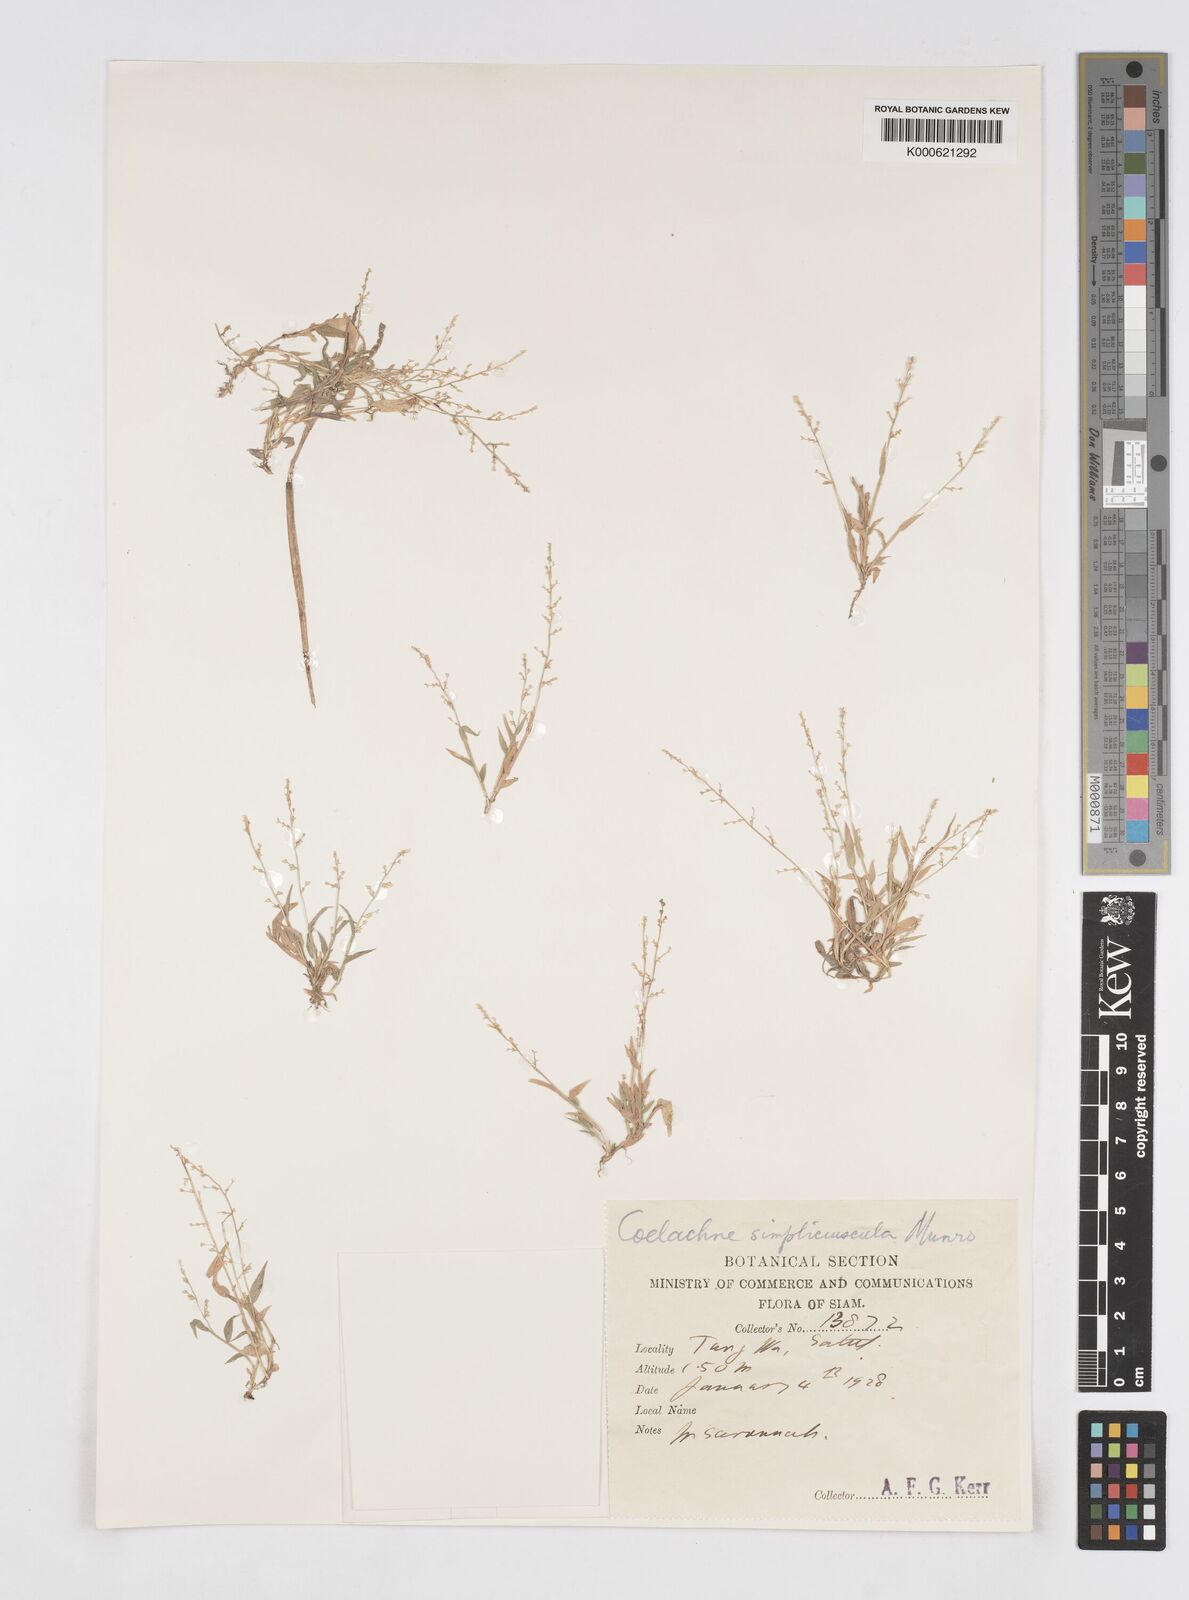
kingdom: Plantae
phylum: Tracheophyta
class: Liliopsida
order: Poales
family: Poaceae
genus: Coelachne
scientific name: Coelachne simpliciuscula
